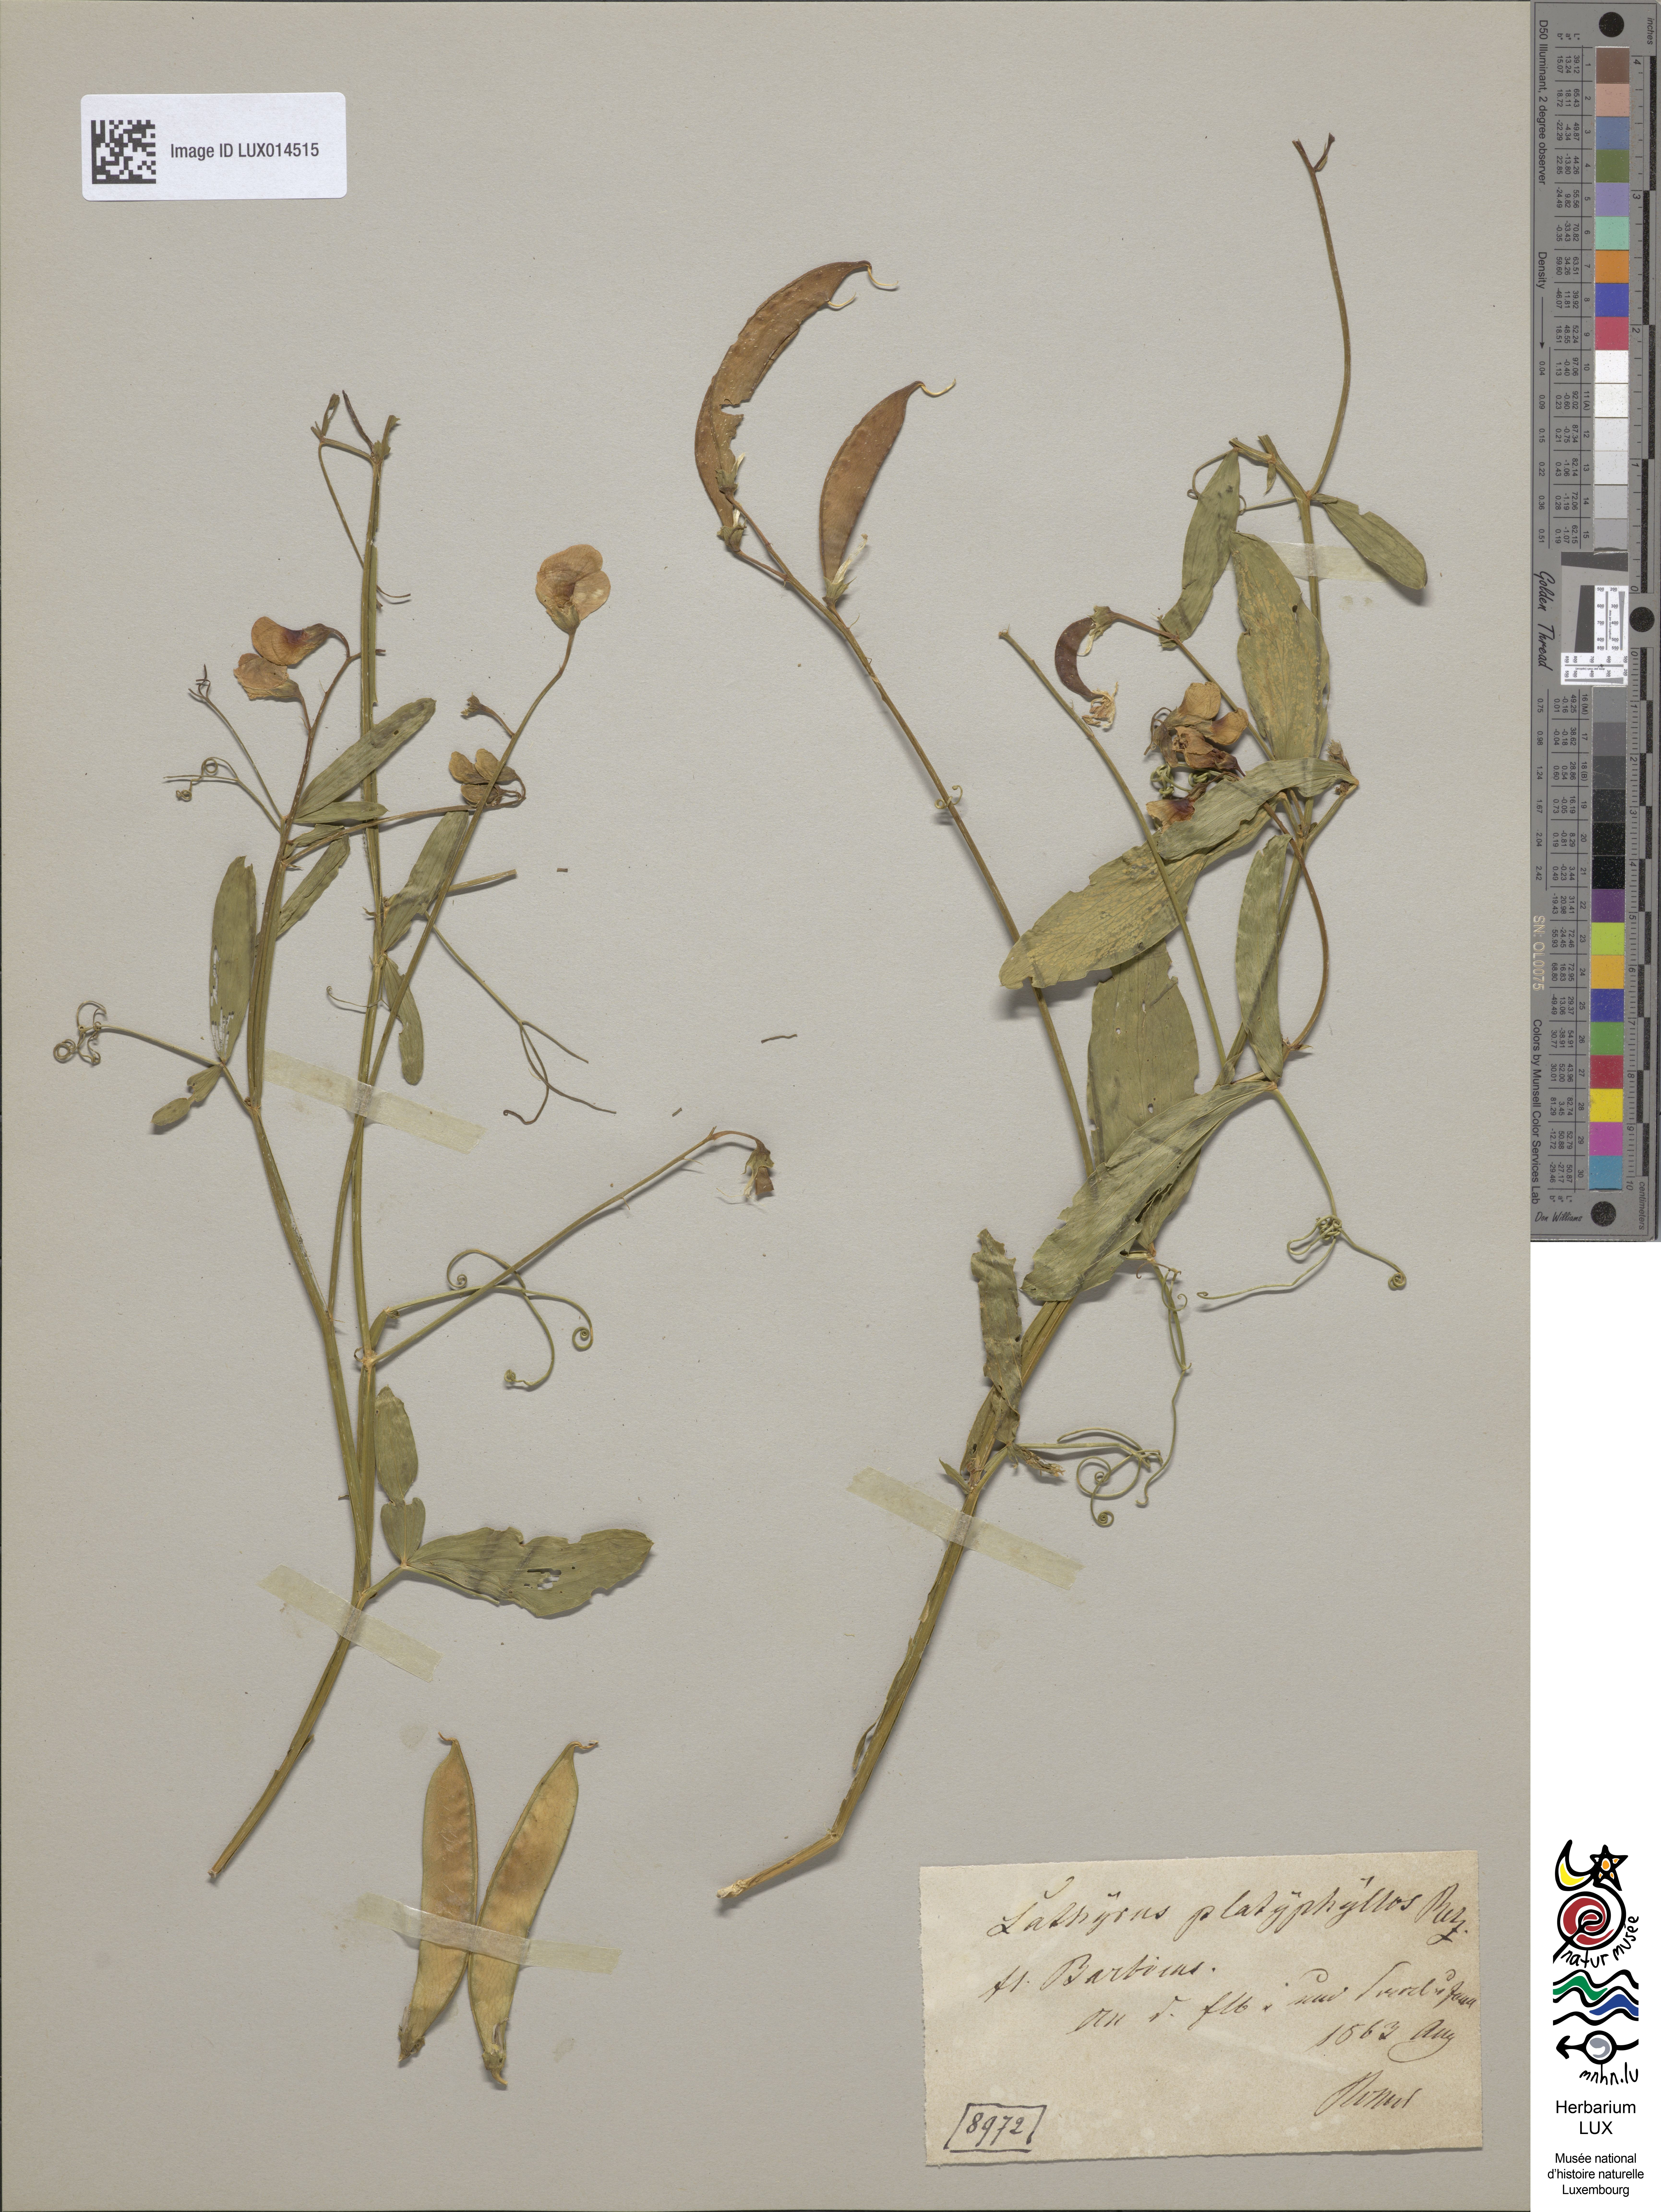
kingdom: Plantae
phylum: Tracheophyta
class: Magnoliopsida
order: Fabales
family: Fabaceae
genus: Lathyrus
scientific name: Lathyrus sylvestris
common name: Flat pea
